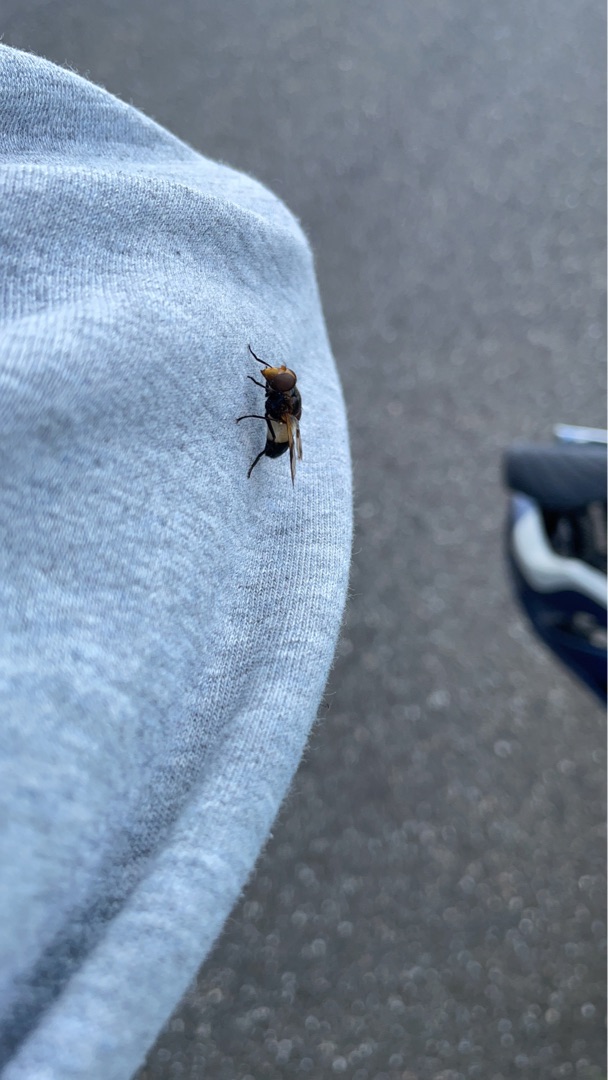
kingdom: Animalia
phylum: Arthropoda
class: Insecta
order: Diptera
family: Syrphidae
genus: Volucella
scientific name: Volucella pellucens
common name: Hvidbåndet humlesvirreflue
